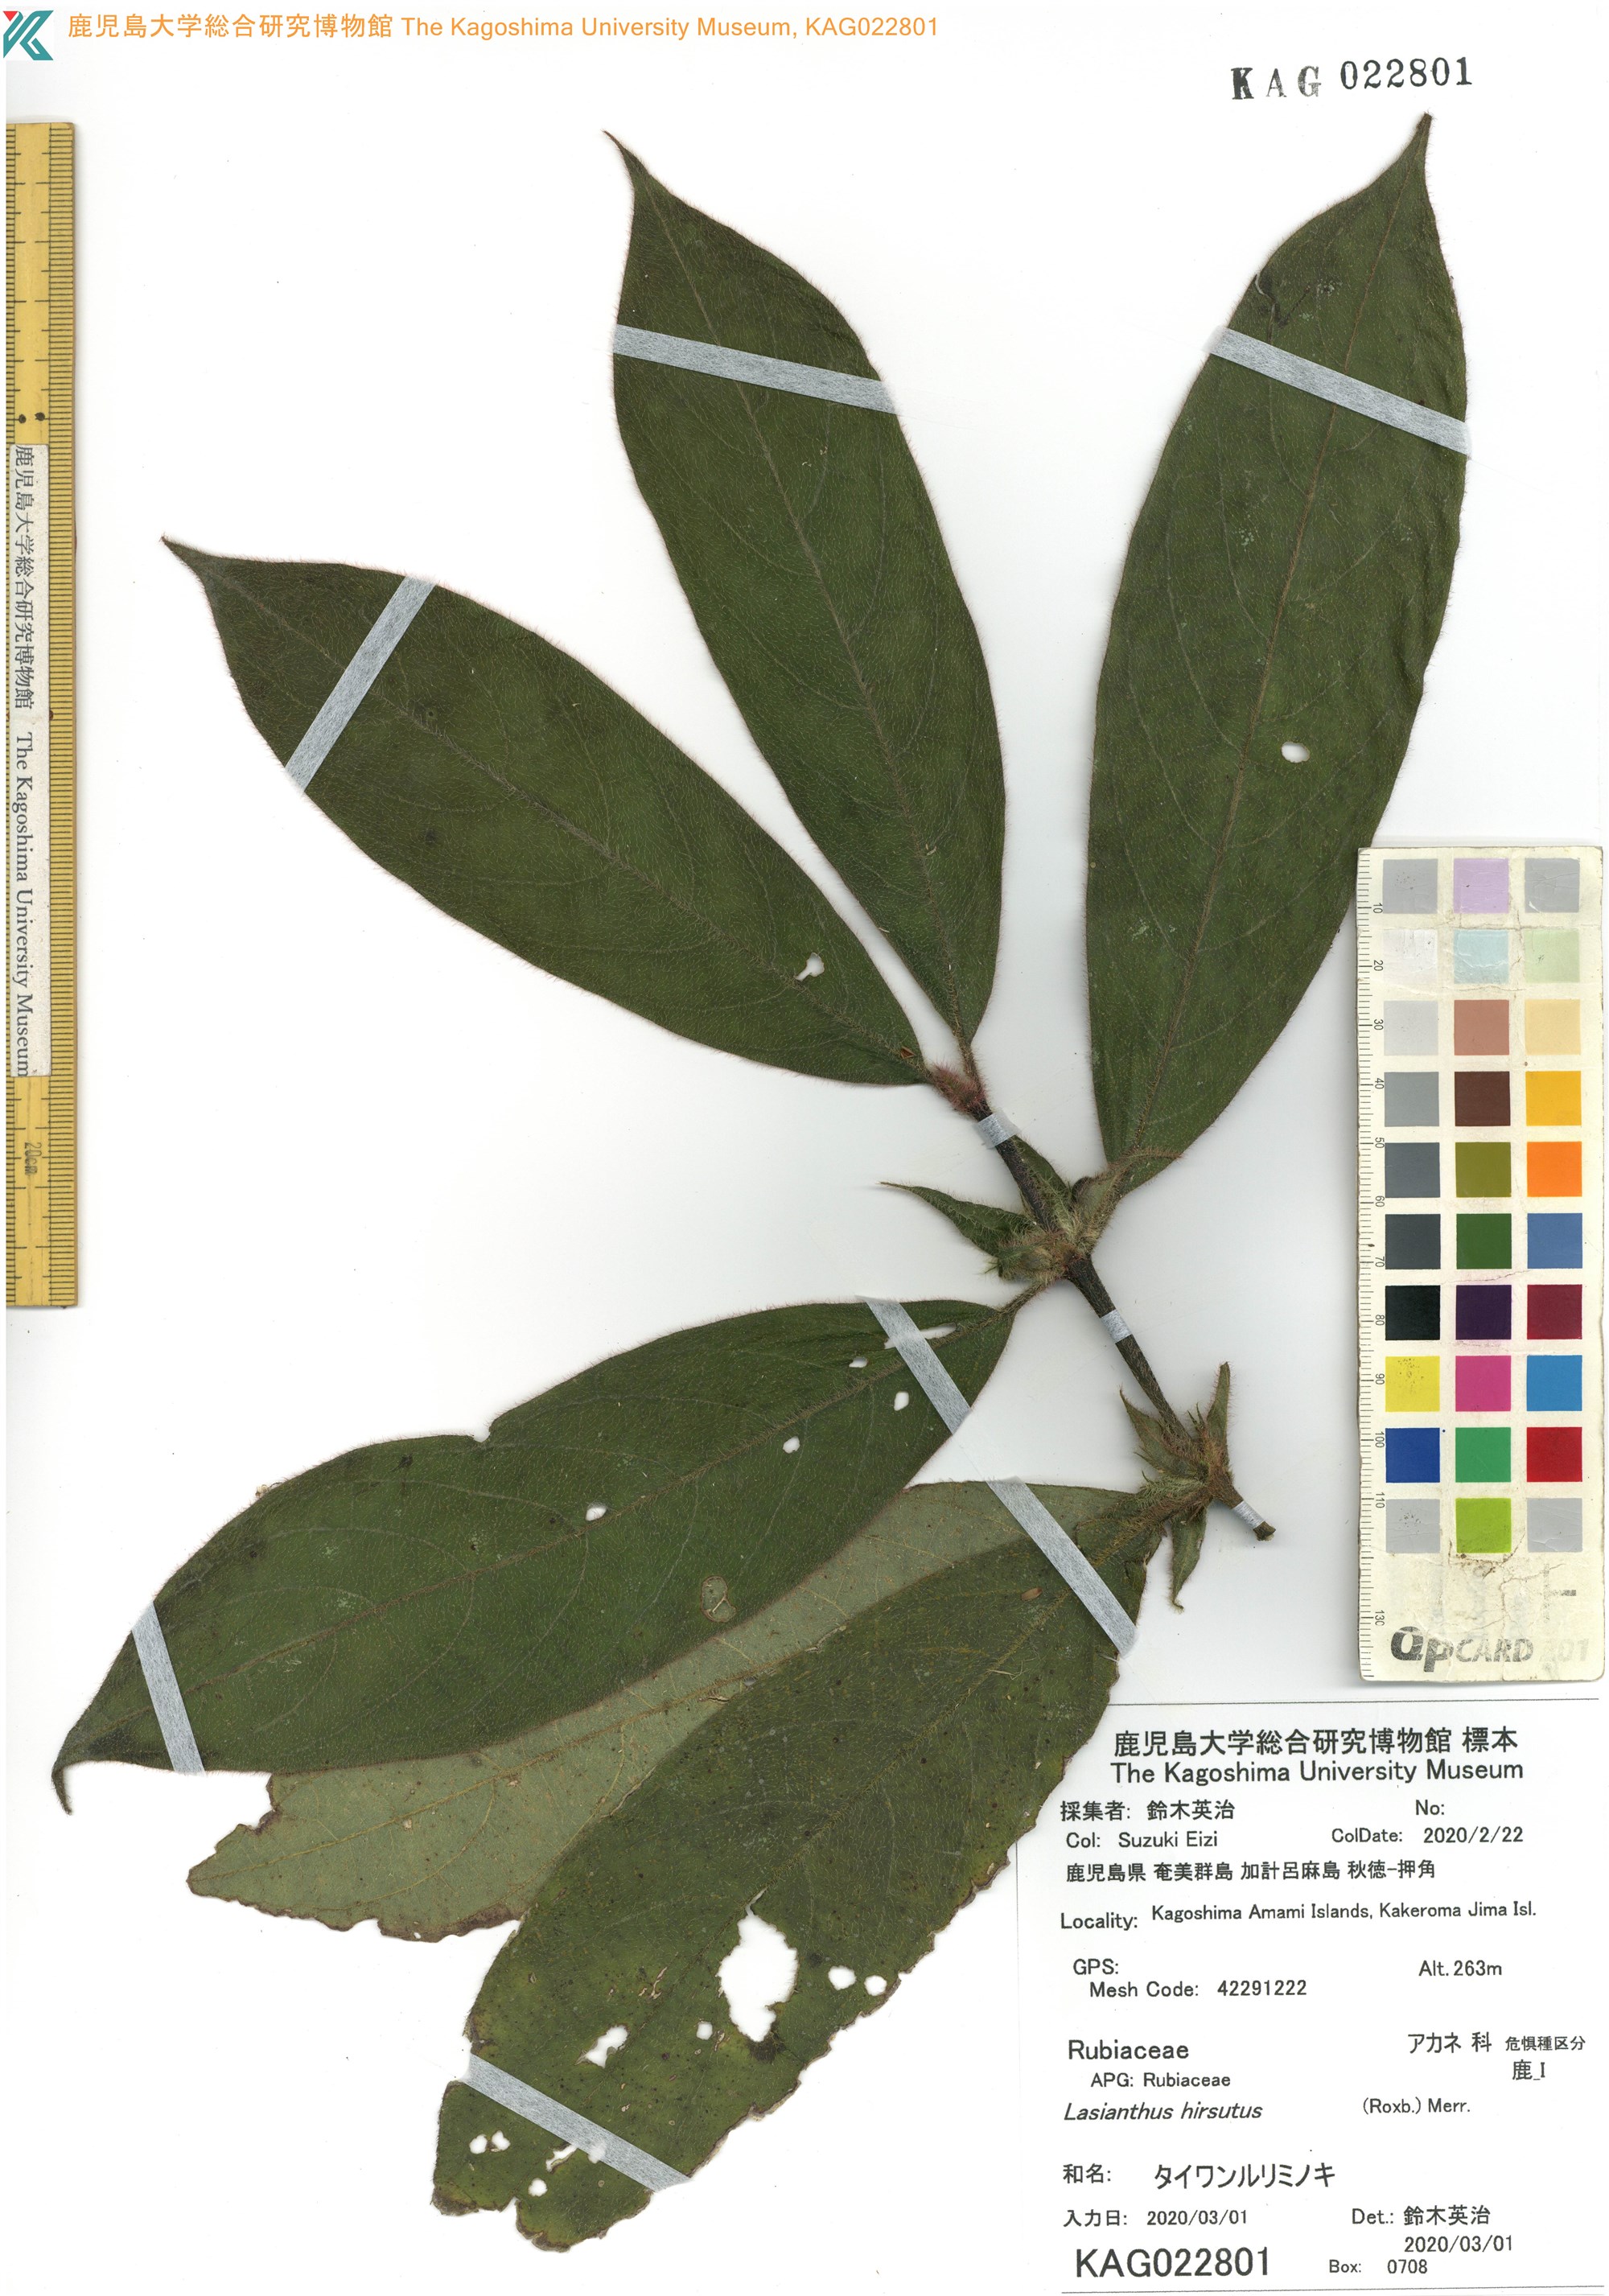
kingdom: Plantae
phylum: Tracheophyta
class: Magnoliopsida
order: Gentianales
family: Rubiaceae
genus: Lasianthus
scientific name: Lasianthus hirsutus
